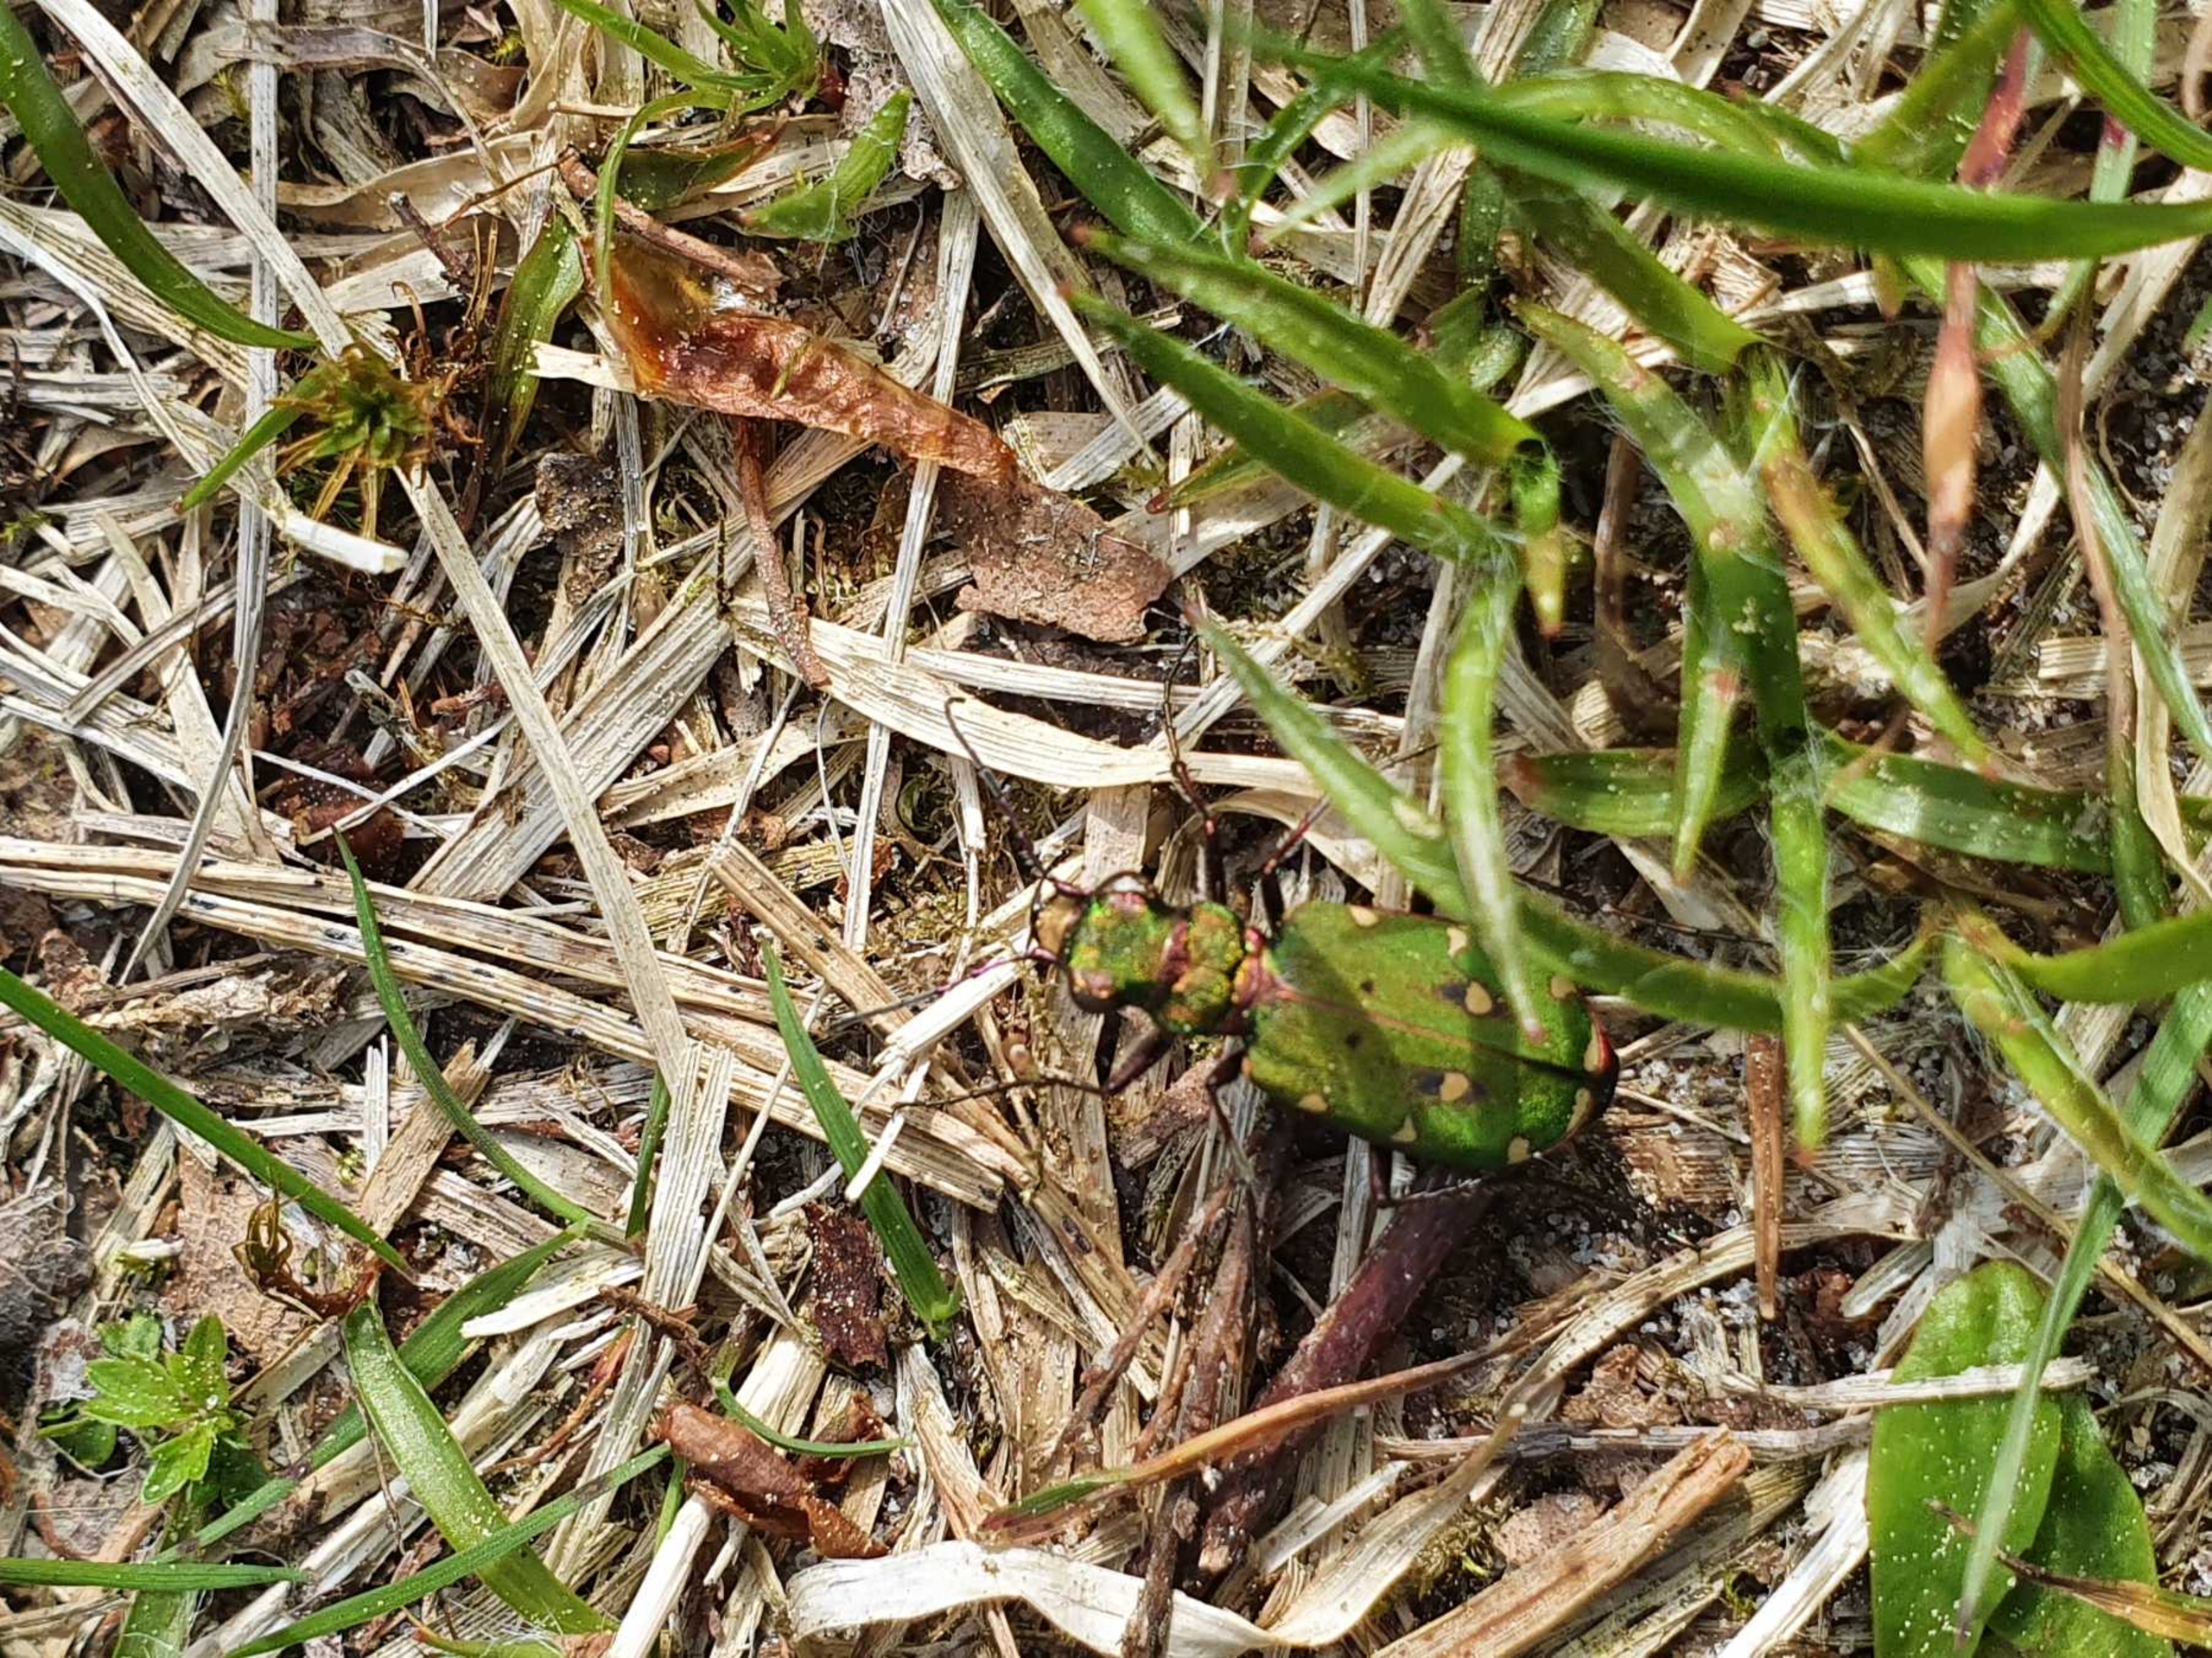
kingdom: Animalia
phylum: Arthropoda
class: Insecta
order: Coleoptera
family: Carabidae
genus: Cicindela
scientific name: Cicindela campestris
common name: Grøn sandspringer
